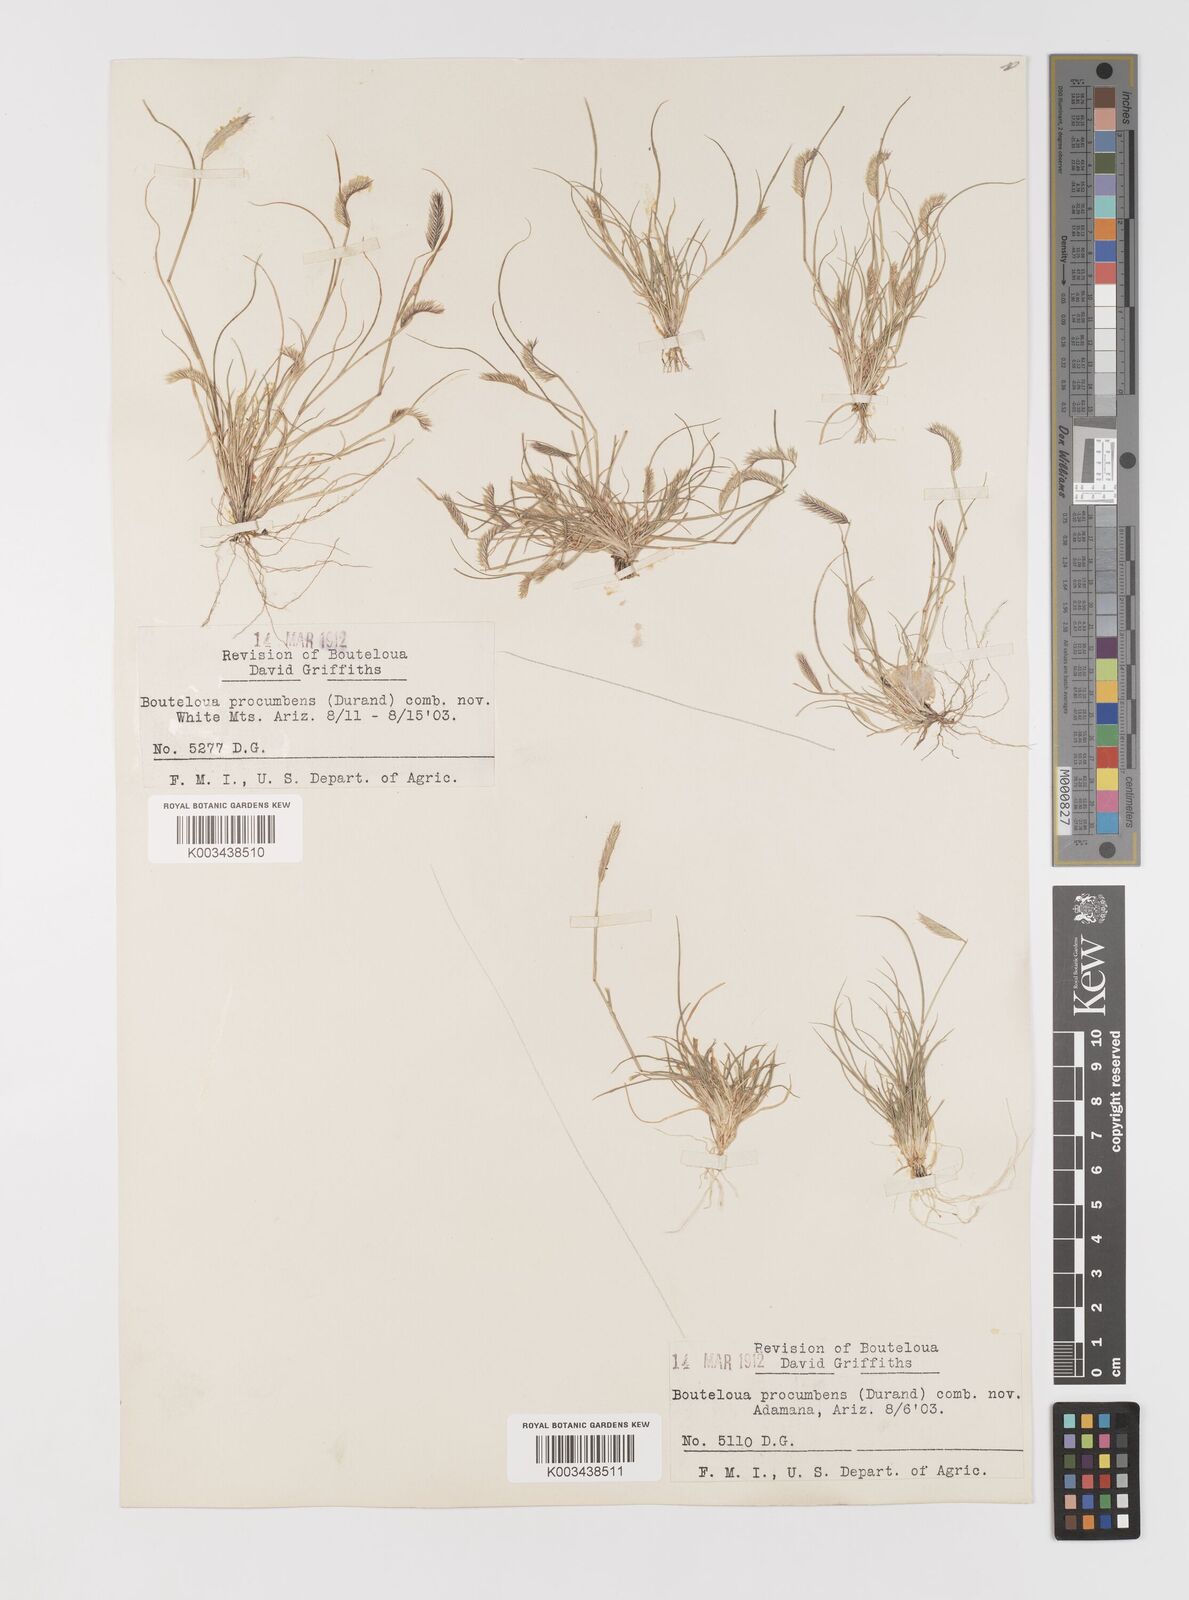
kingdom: Plantae
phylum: Tracheophyta
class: Liliopsida
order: Poales
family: Poaceae
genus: Bouteloua
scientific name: Bouteloua simplex
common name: Mat grama
